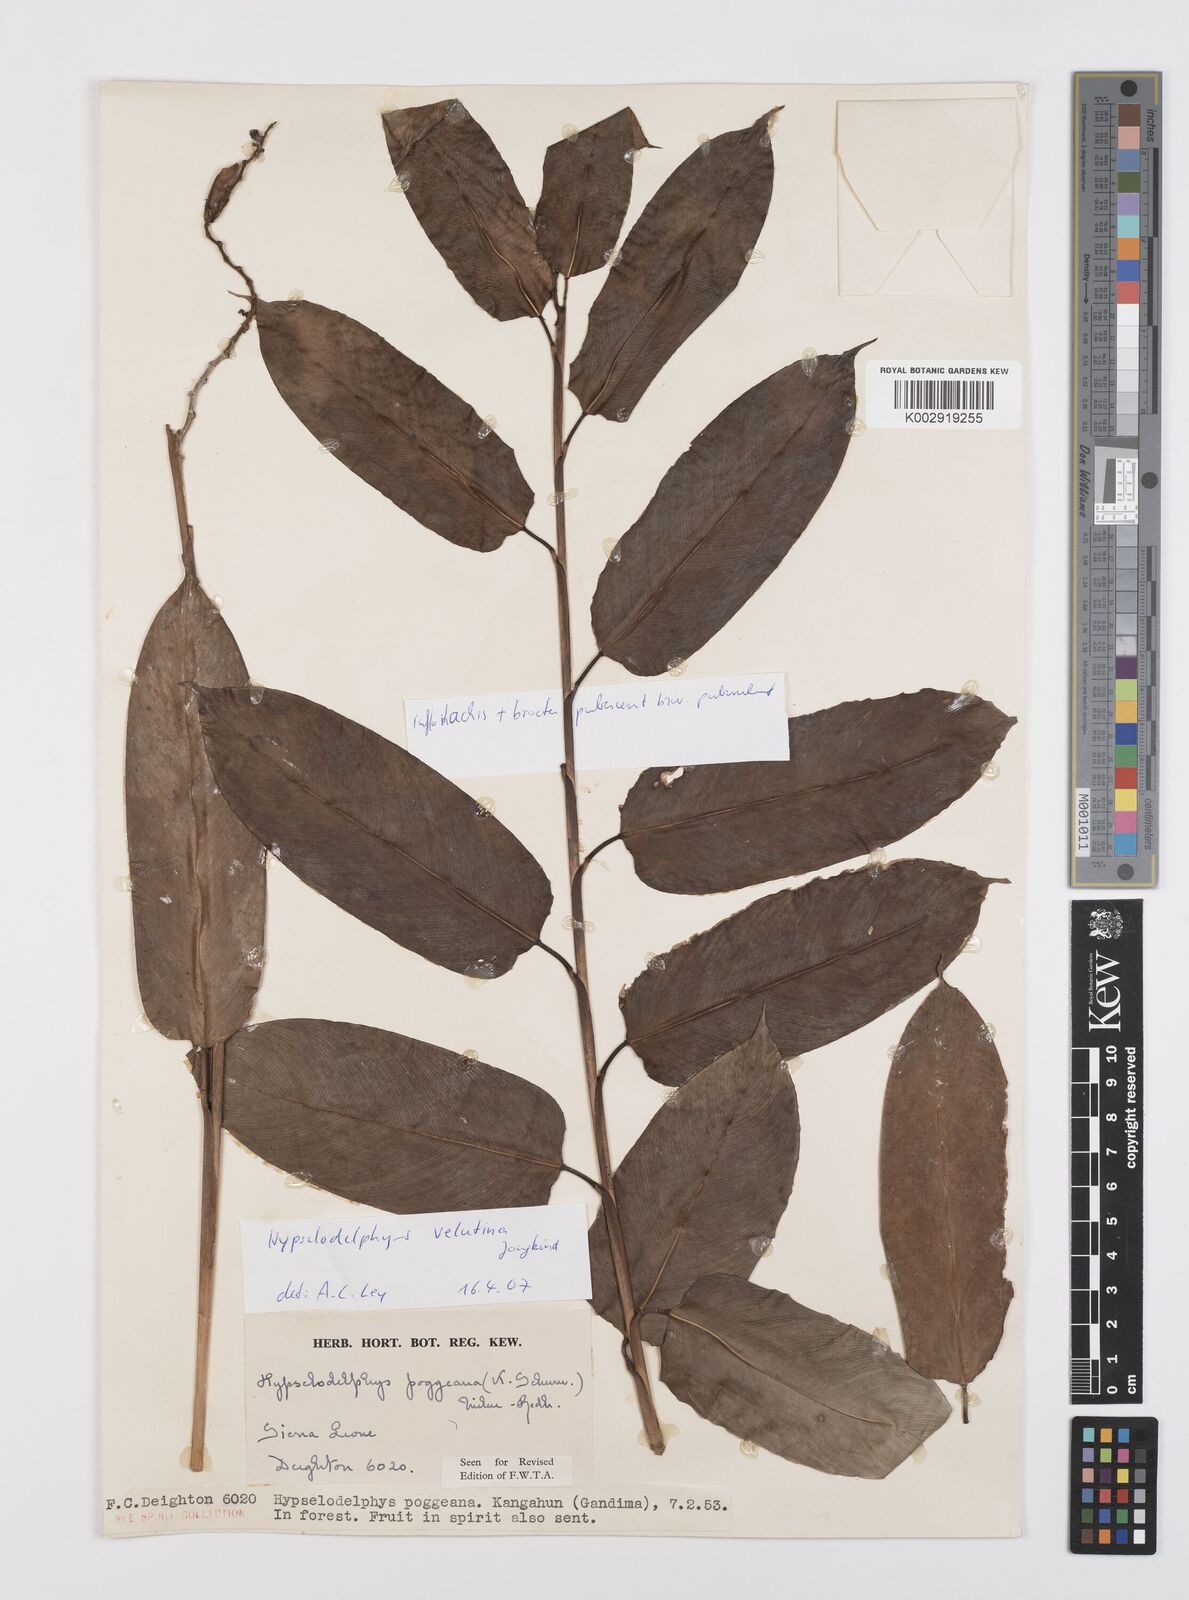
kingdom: Plantae
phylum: Tracheophyta
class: Liliopsida
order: Zingiberales
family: Marantaceae
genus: Hypselodelphys
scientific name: Hypselodelphys velutina
